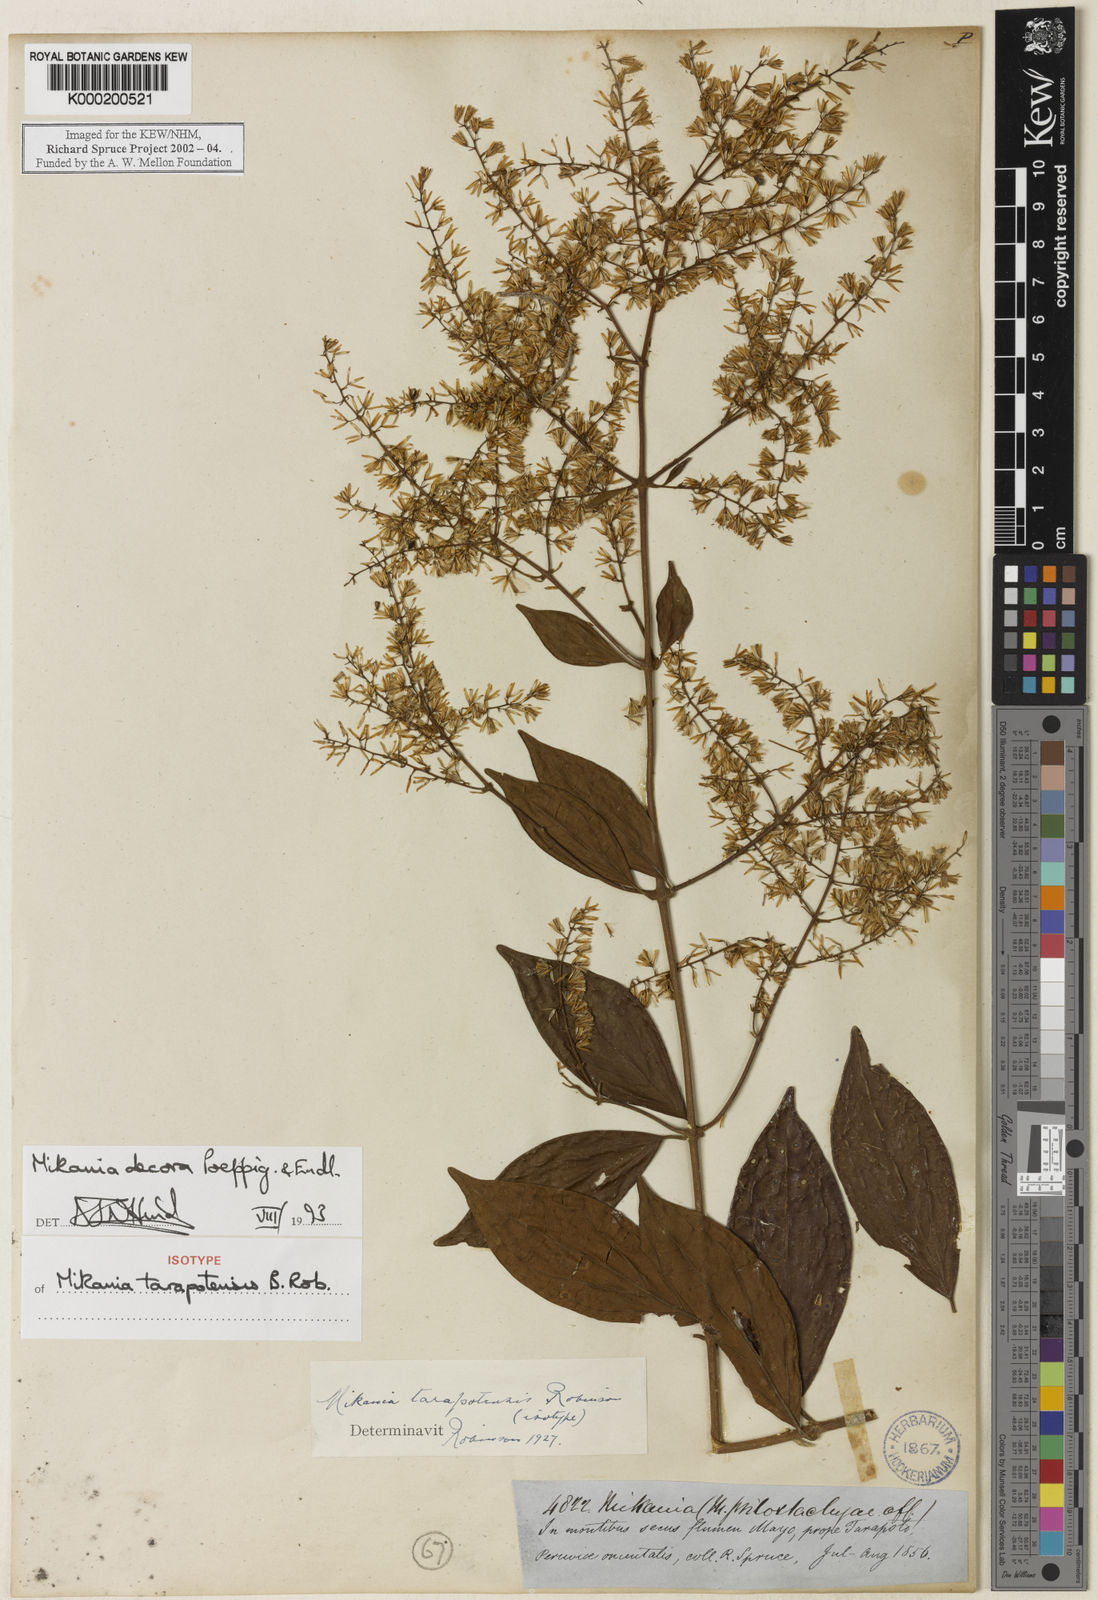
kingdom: Plantae
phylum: Tracheophyta
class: Magnoliopsida
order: Asterales
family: Asteraceae
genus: Mikania
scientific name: Mikania decora
